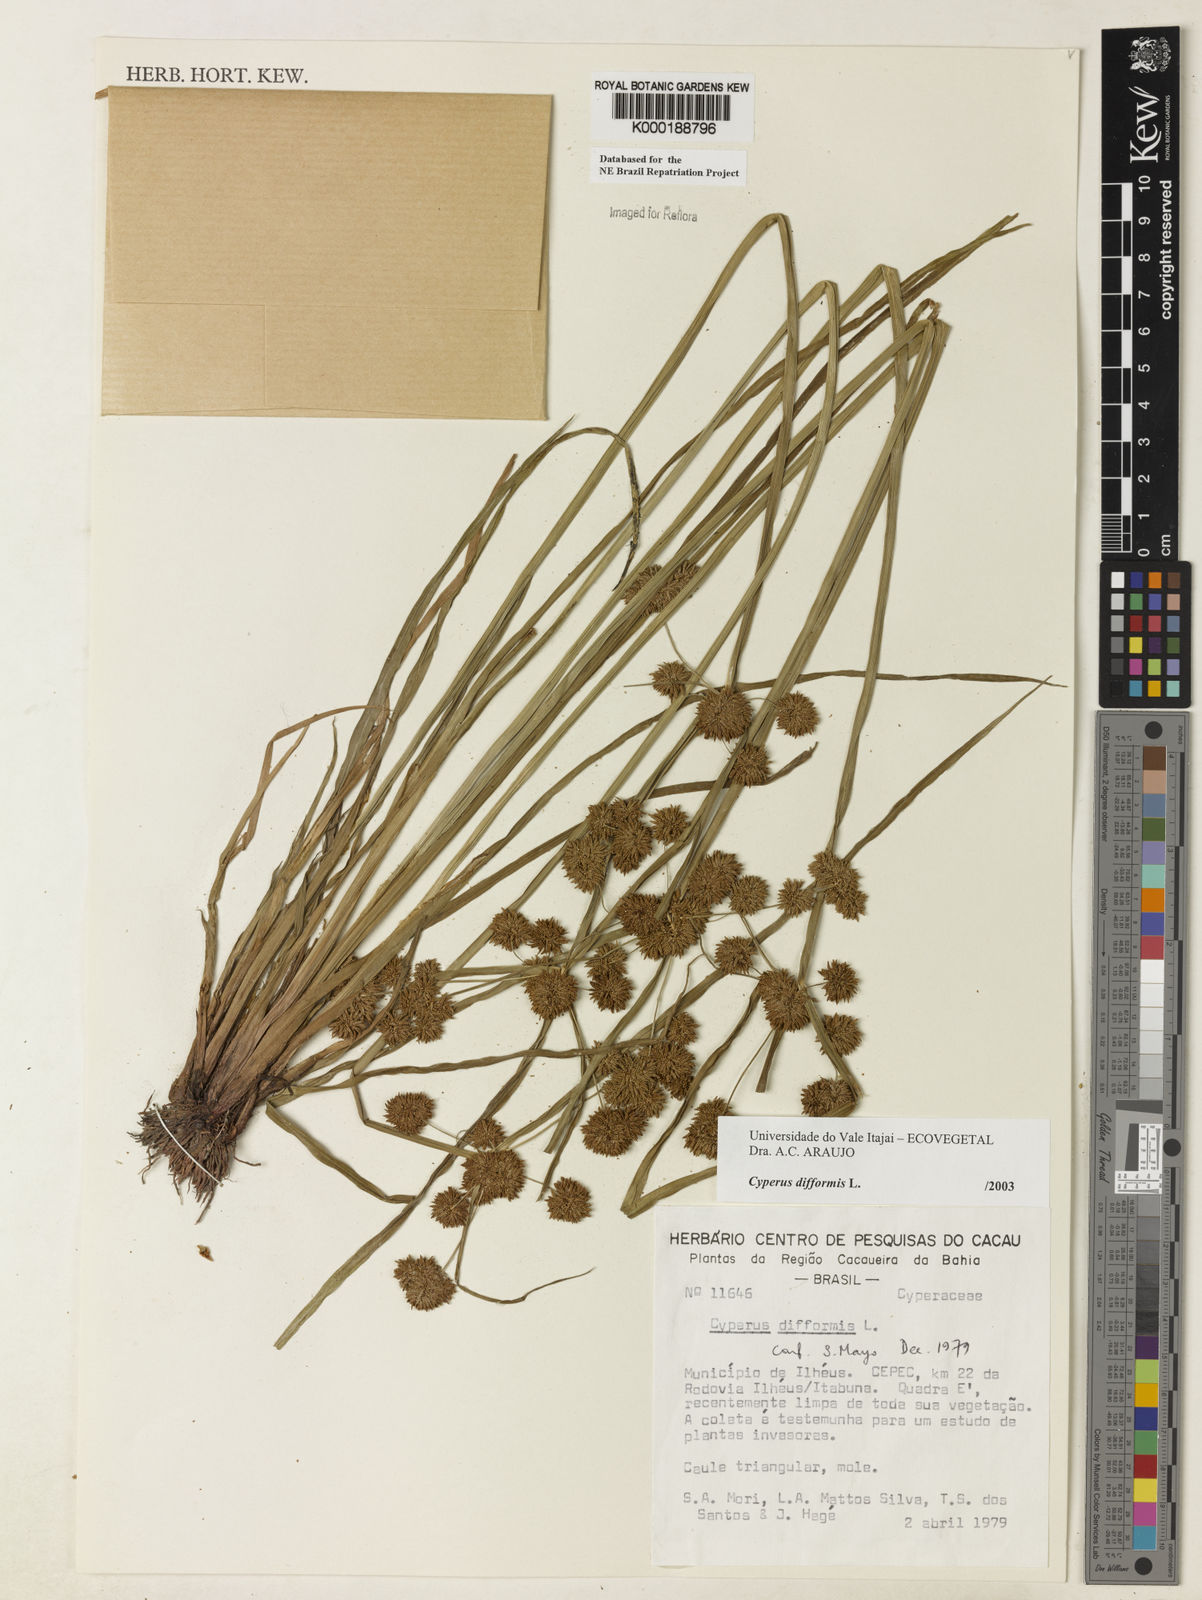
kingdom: Plantae
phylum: Tracheophyta
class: Liliopsida
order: Poales
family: Cyperaceae
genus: Cyperus
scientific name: Cyperus difformis
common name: Variable flatsedge
